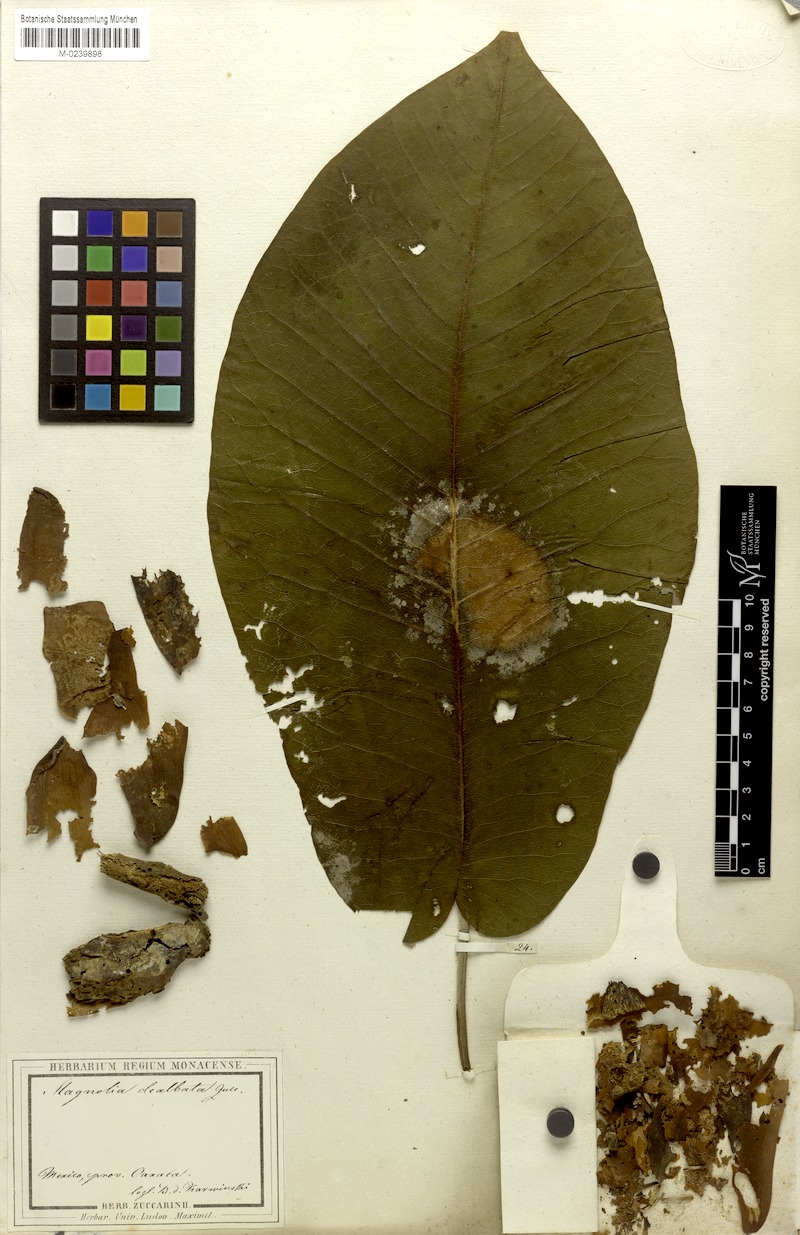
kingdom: Plantae
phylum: Tracheophyta
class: Magnoliopsida
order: Magnoliales
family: Magnoliaceae
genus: Magnolia
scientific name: Magnolia dealbata
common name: Cloudforest magnolia
